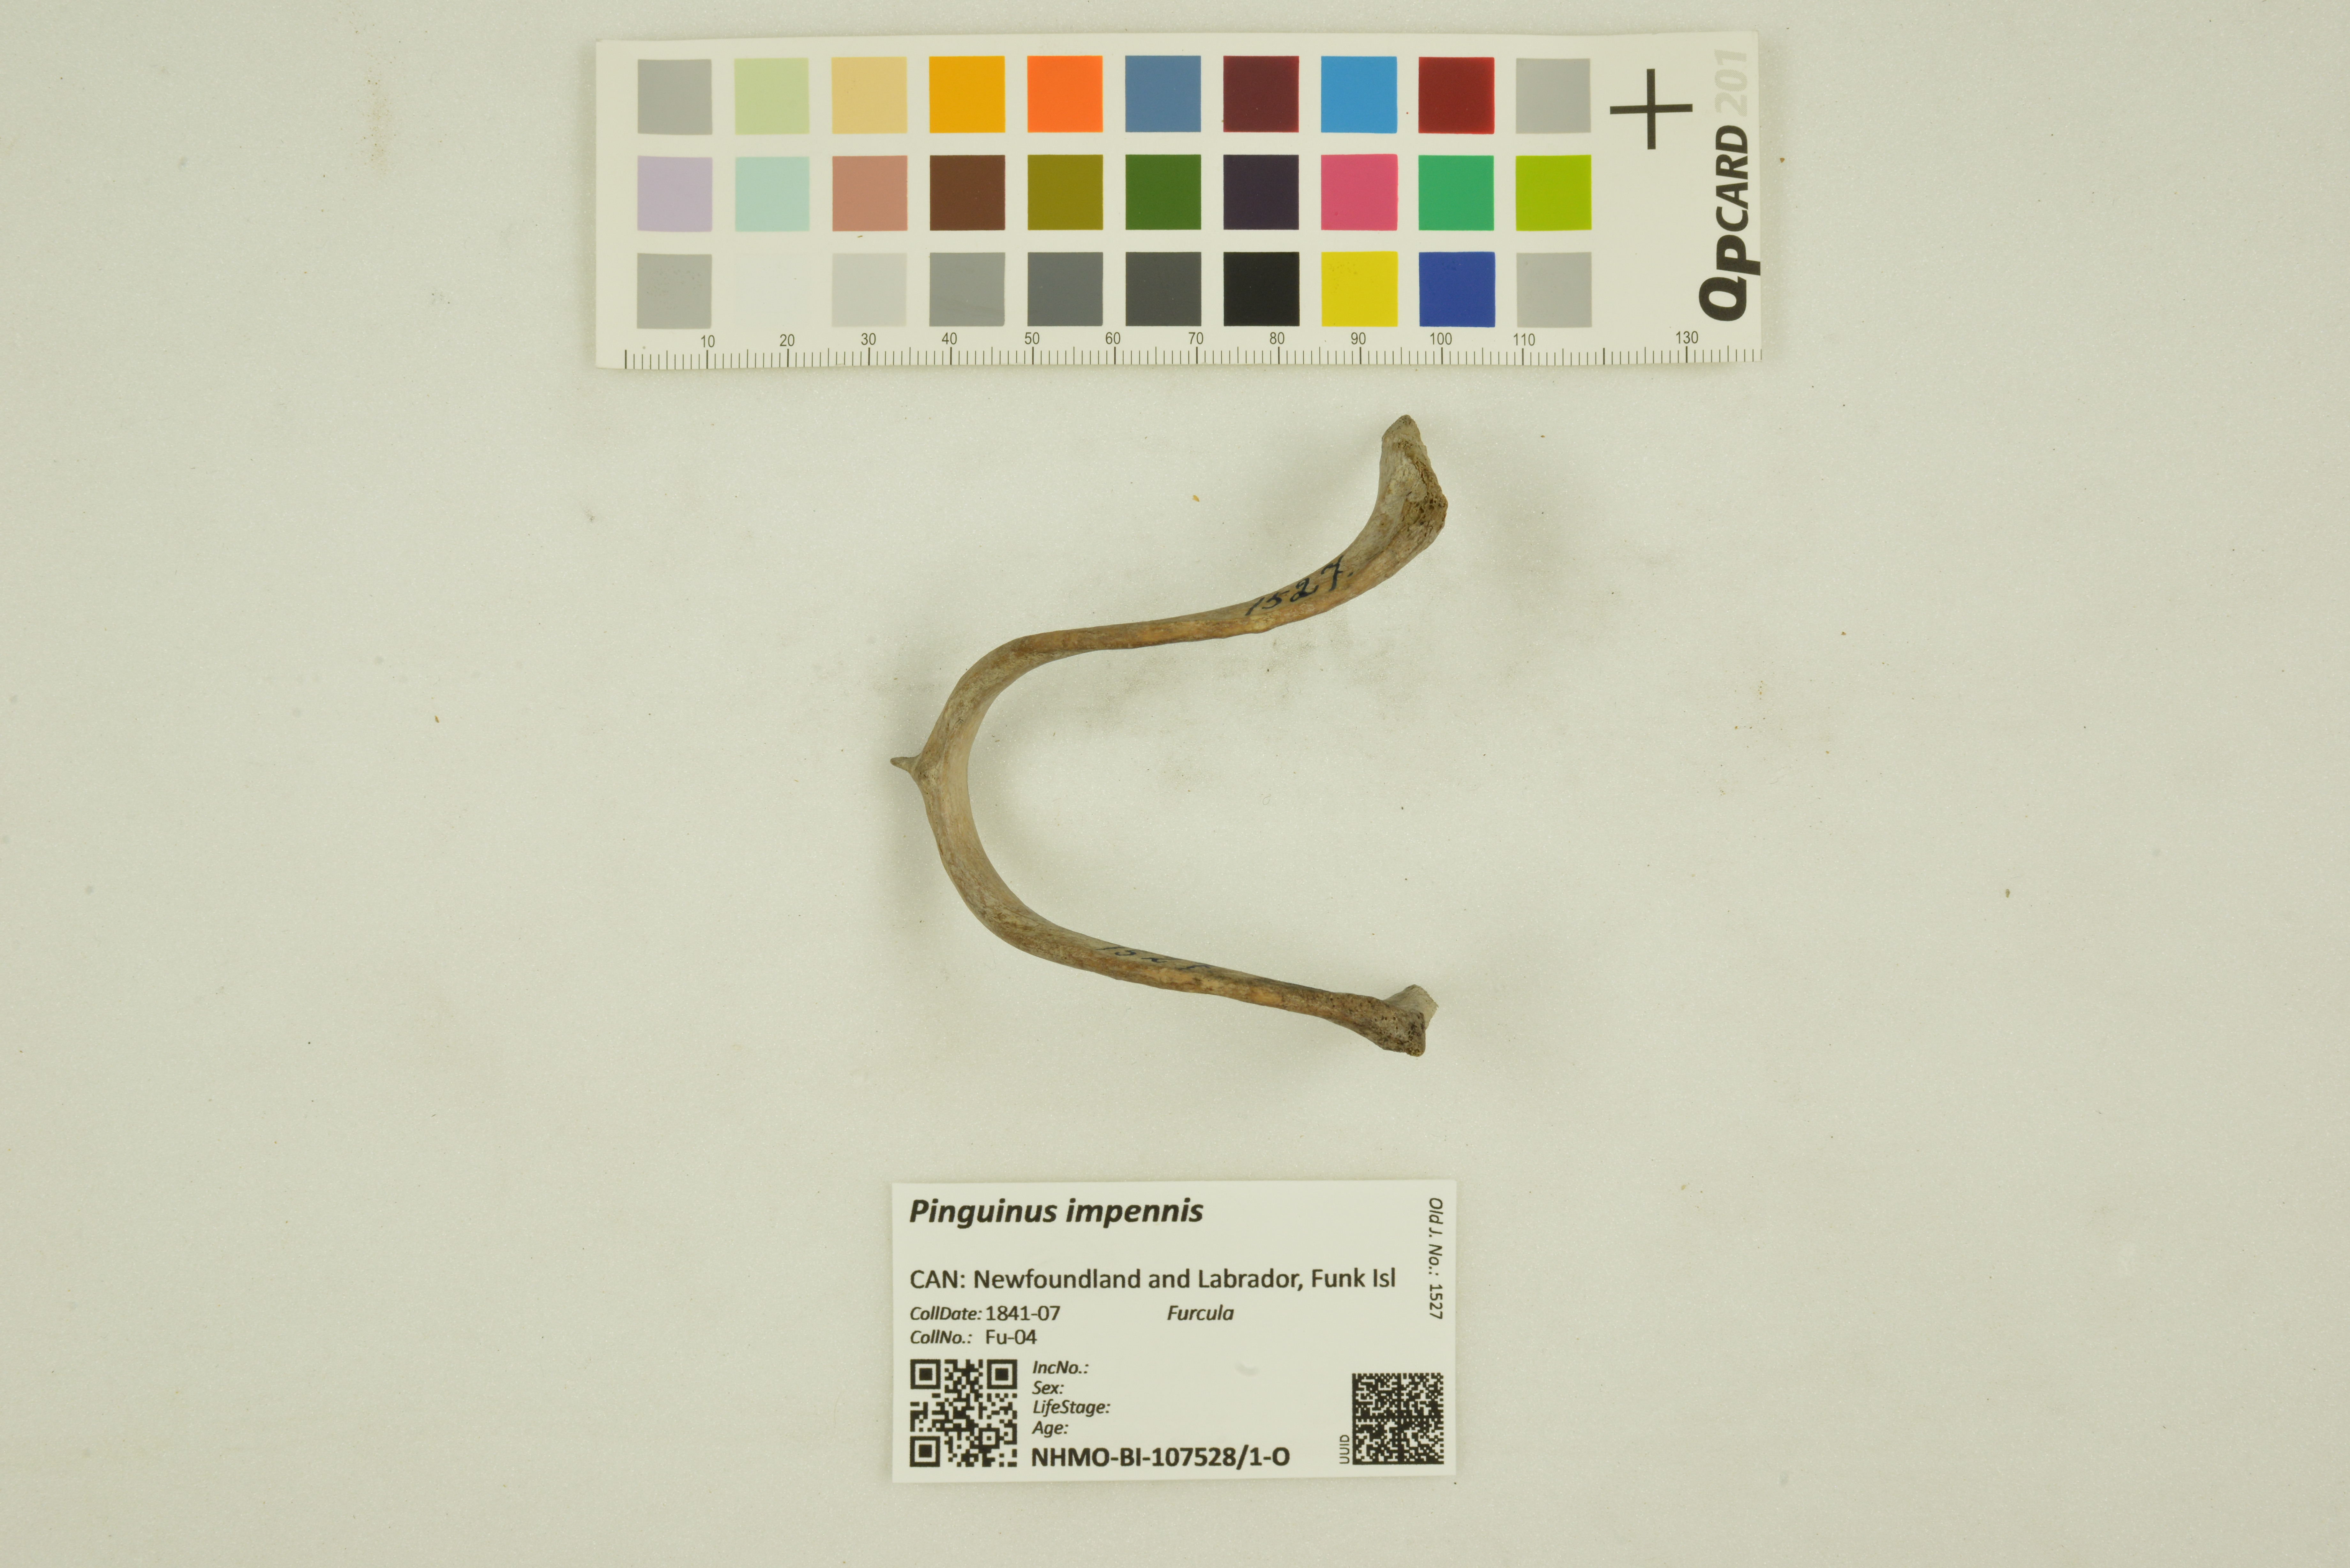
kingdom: Animalia
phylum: Chordata
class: Aves
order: Charadriiformes
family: Alcidae
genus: Pinguinus
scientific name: Pinguinus impennis
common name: Great auk
